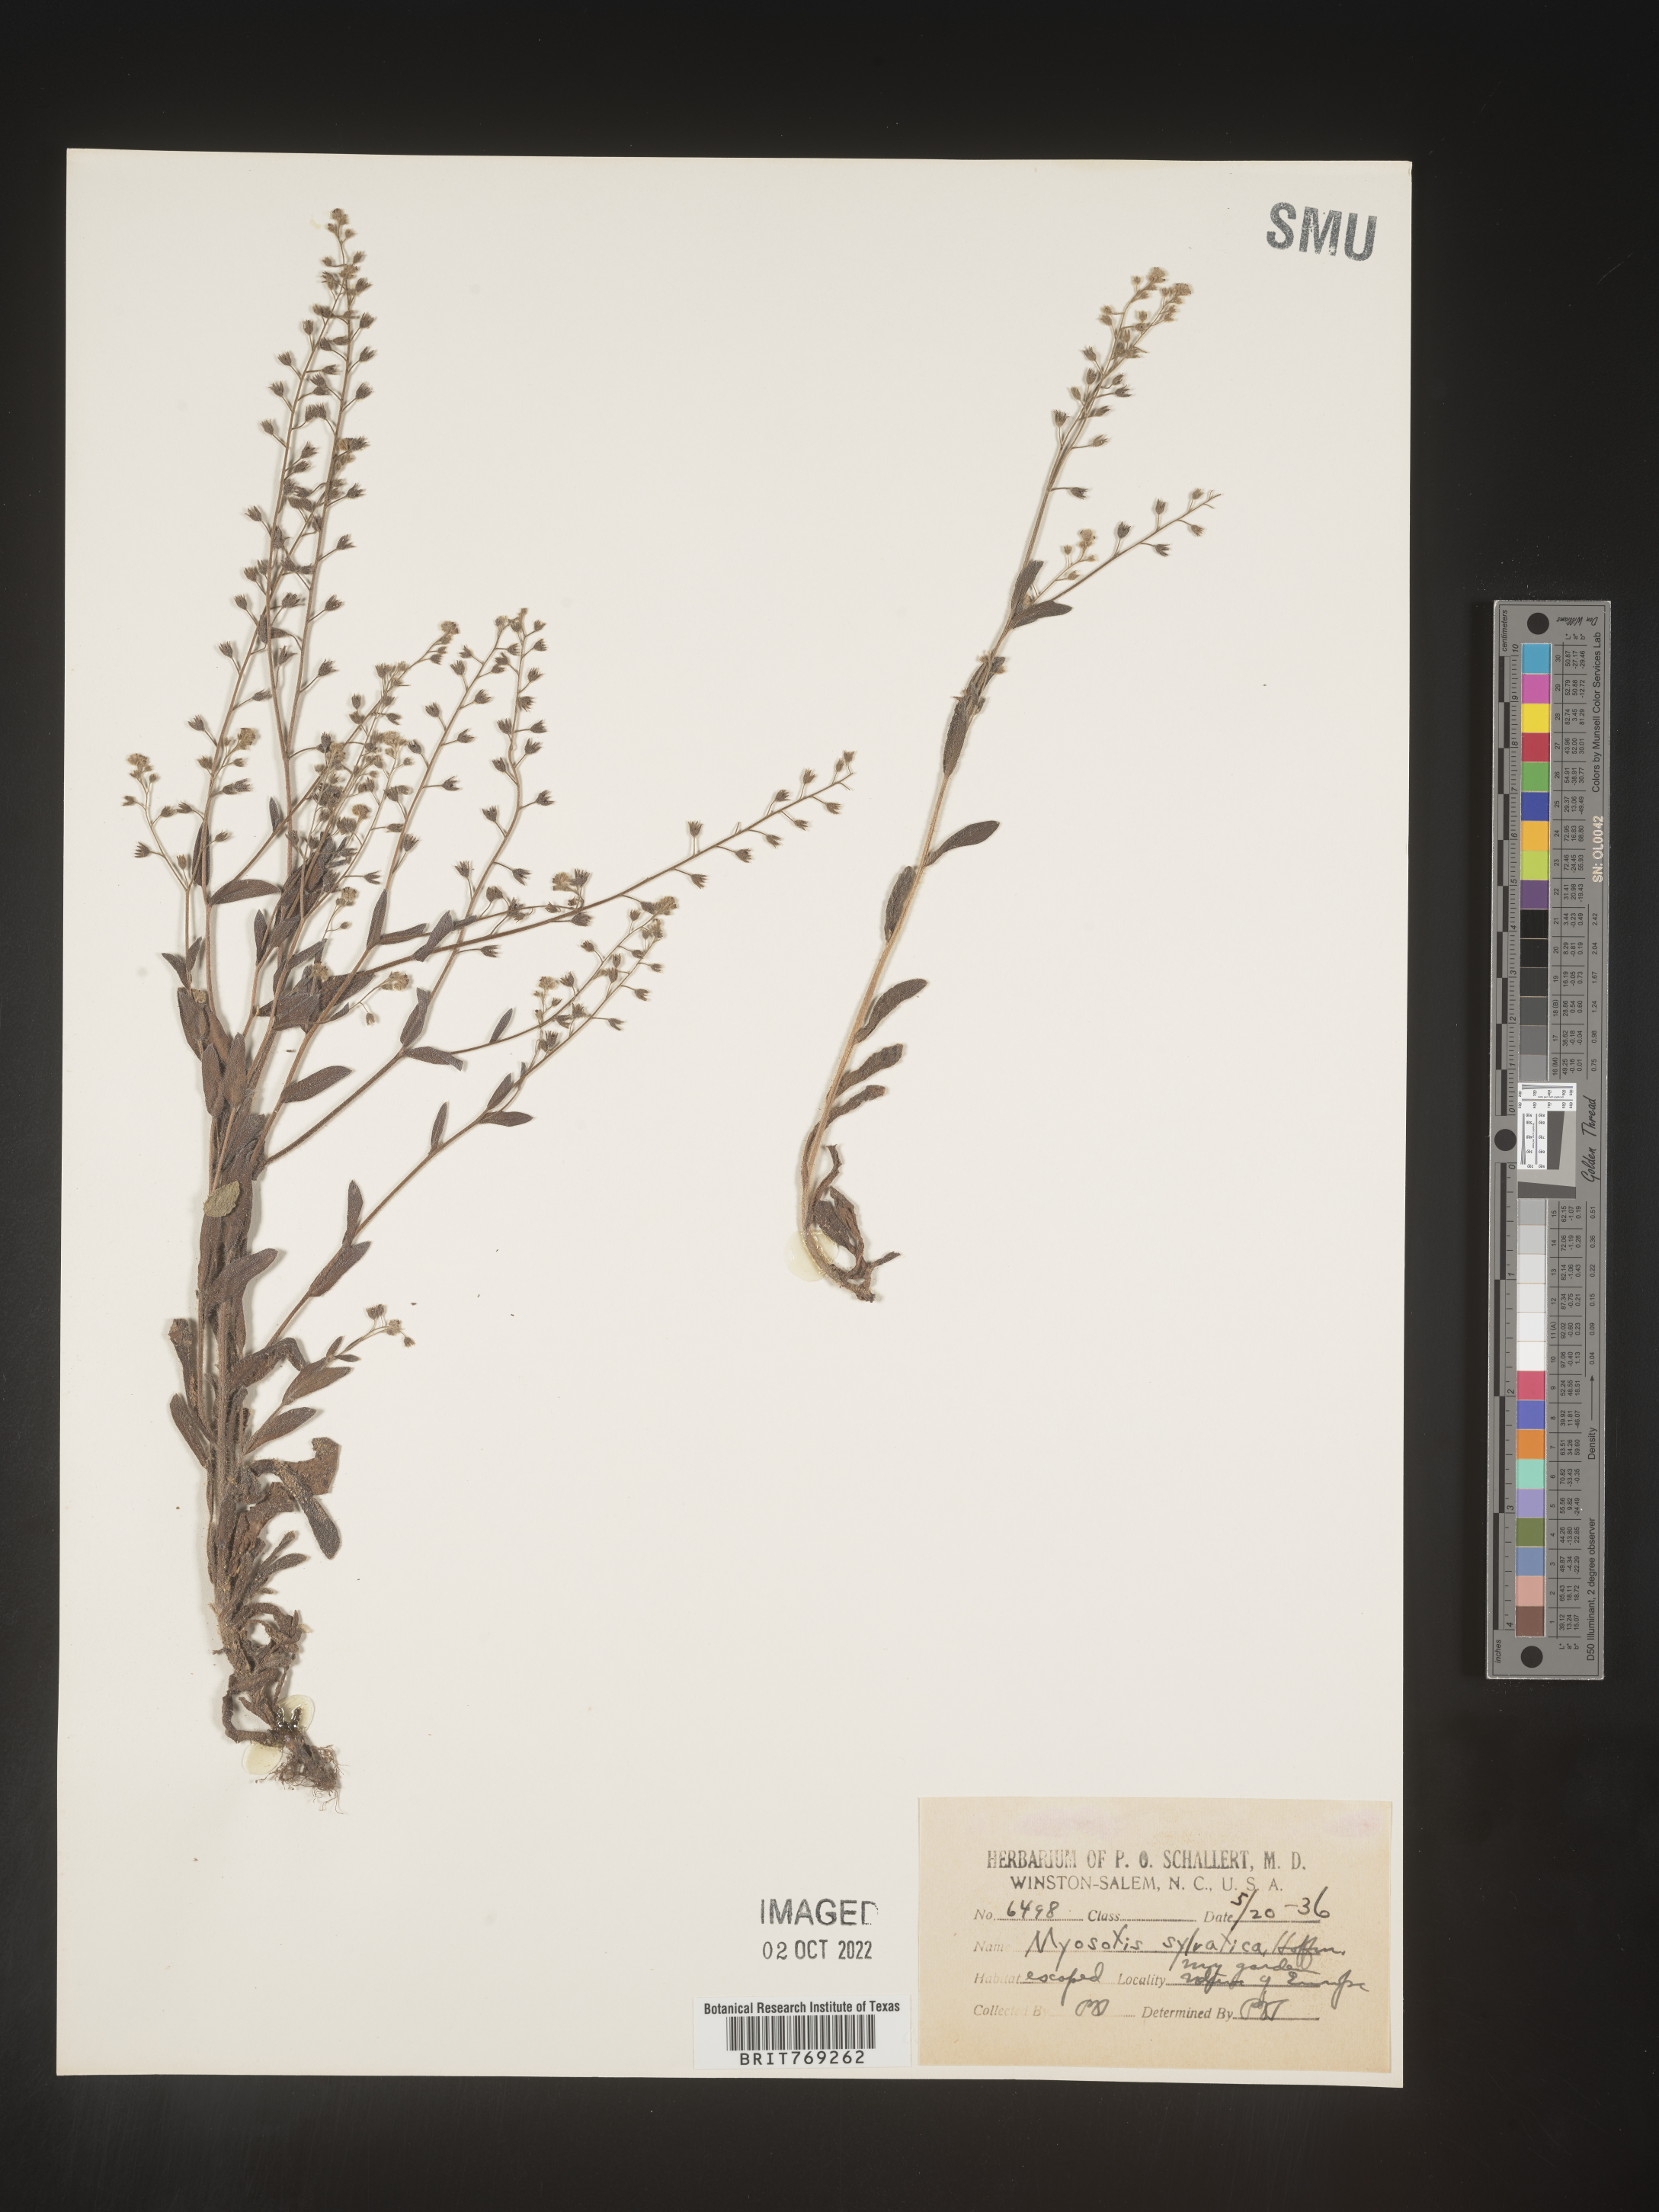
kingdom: Plantae
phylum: Tracheophyta
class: Magnoliopsida
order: Boraginales
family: Boraginaceae
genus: Myosotis
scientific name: Myosotis sylvatica
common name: Wood forget-me-not
